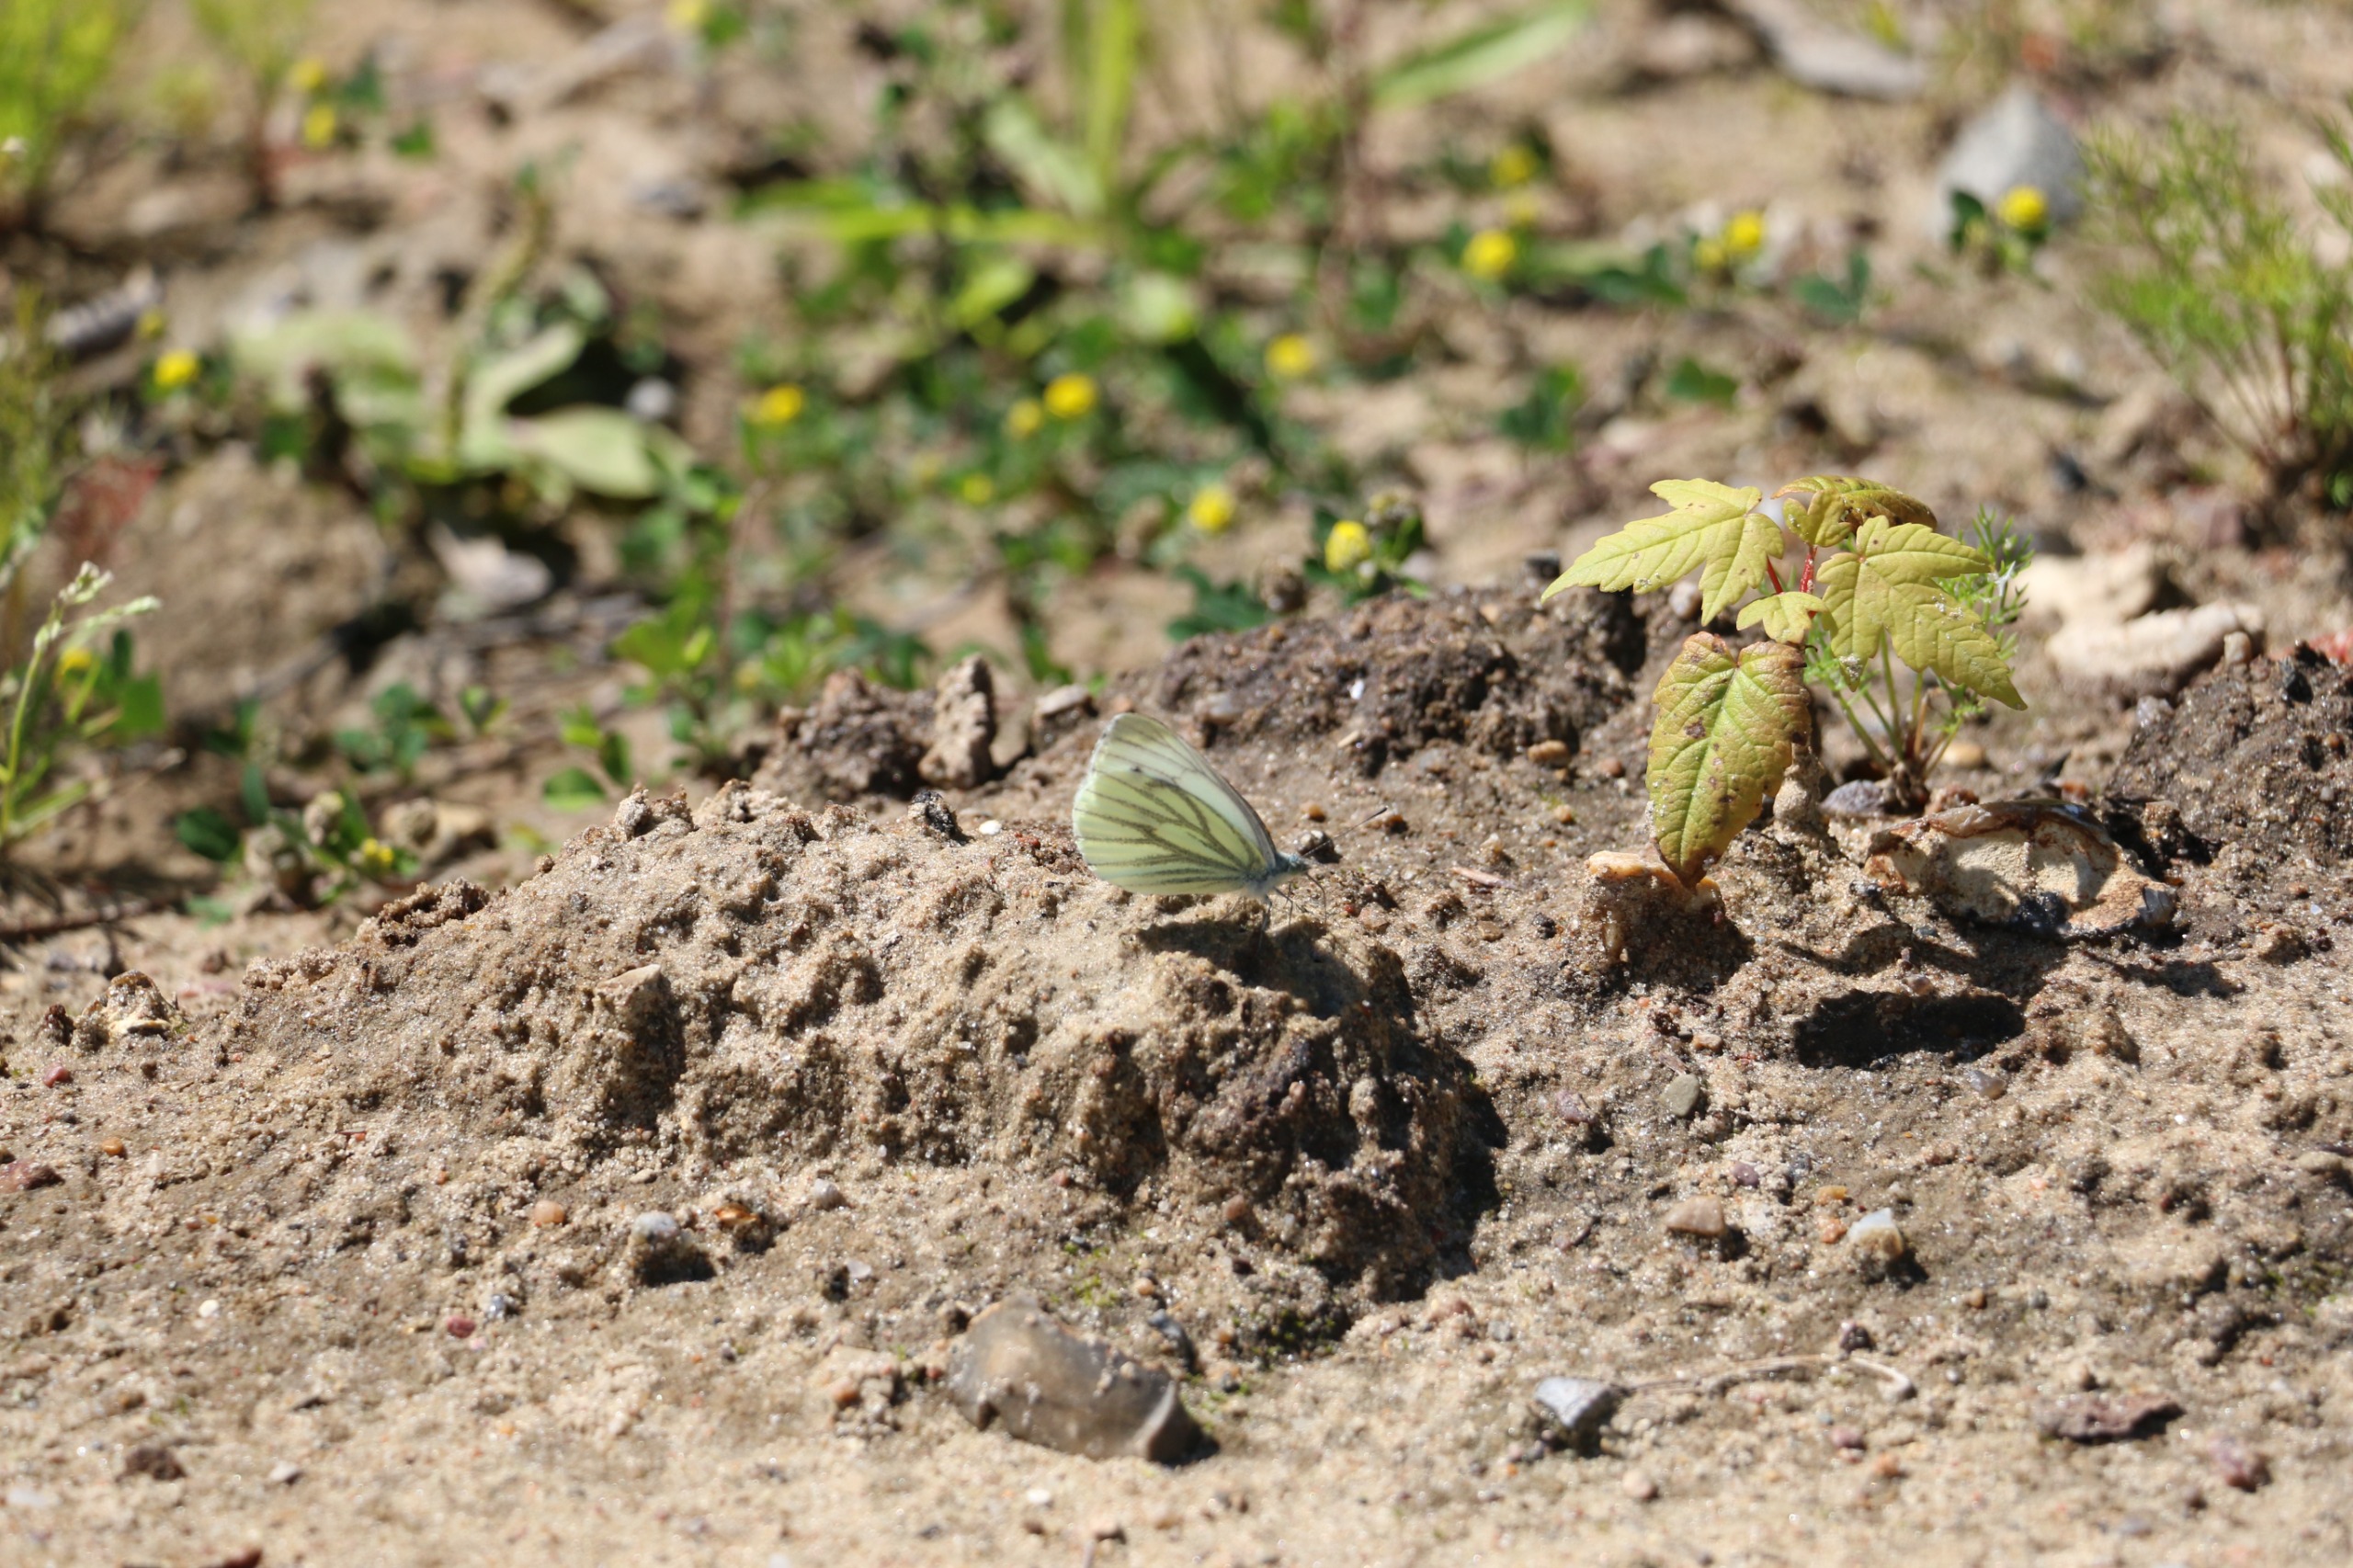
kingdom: Animalia
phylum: Arthropoda
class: Insecta
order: Lepidoptera
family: Pieridae
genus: Pieris
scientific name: Pieris napi
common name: Grønåret kålsommerfugl
